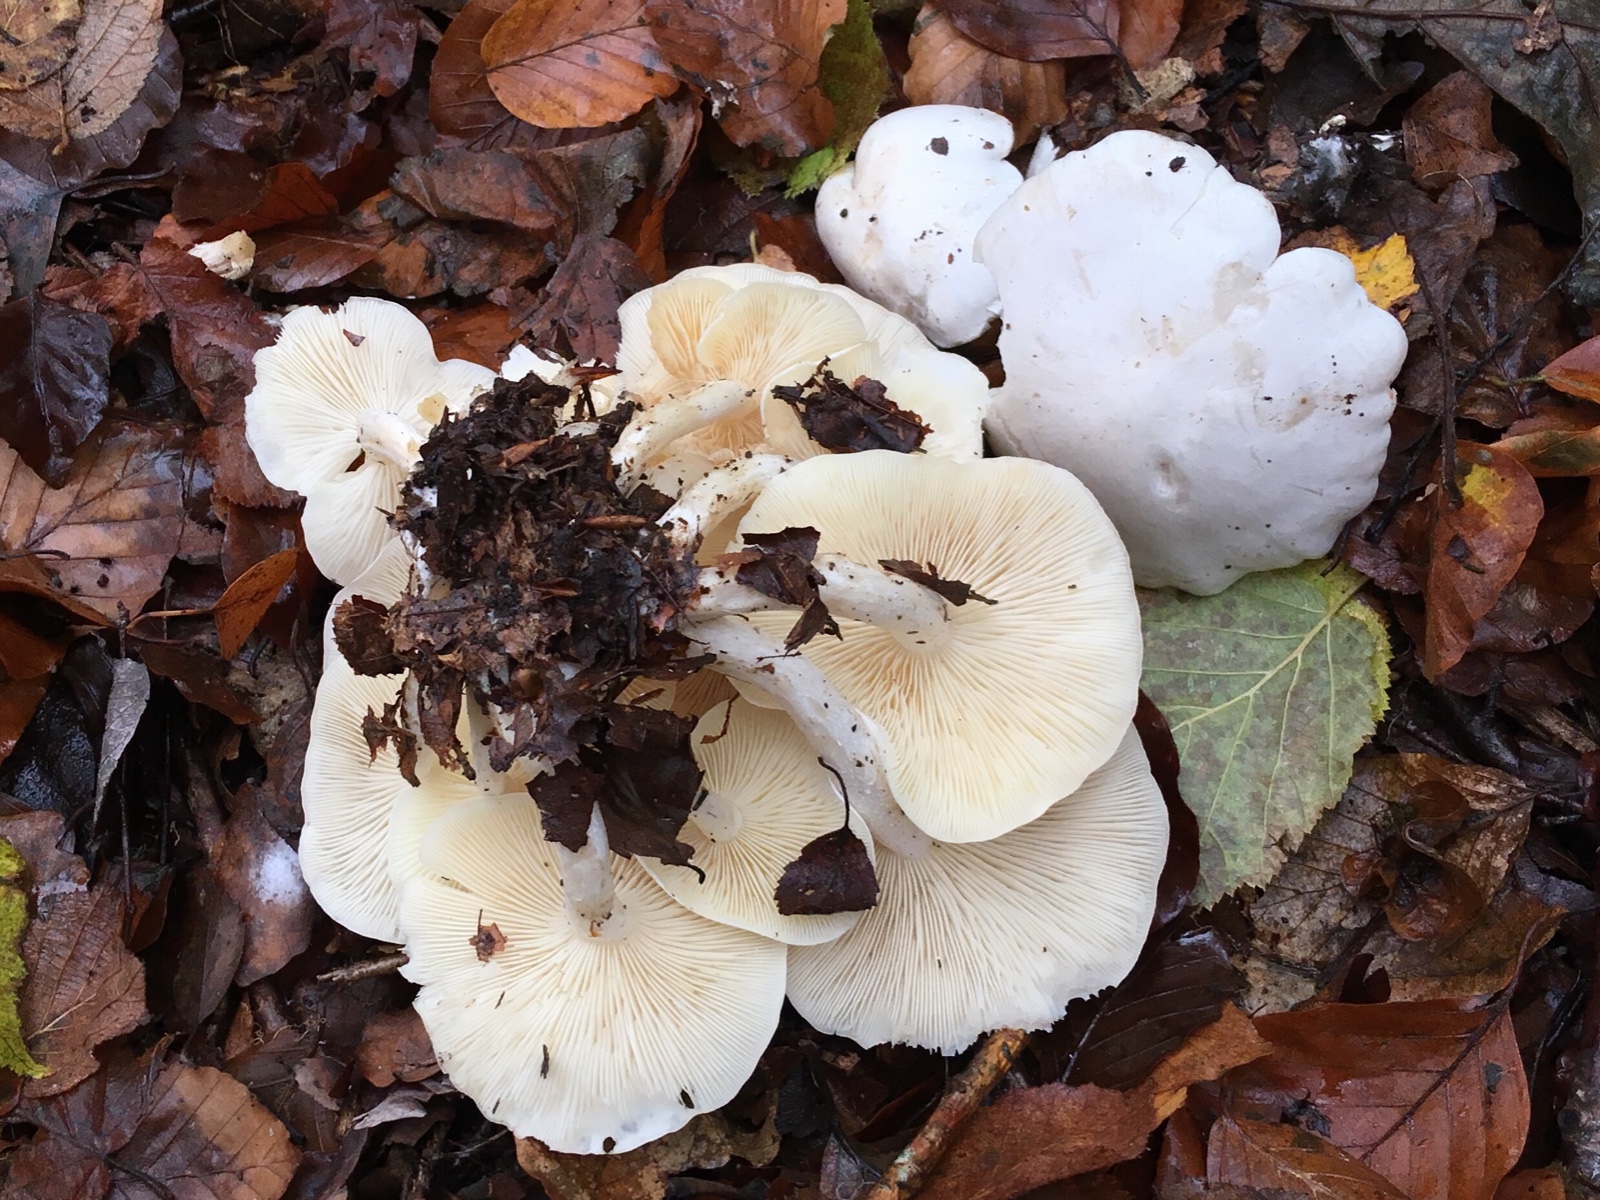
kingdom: Fungi
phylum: Basidiomycota
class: Agaricomycetes
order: Agaricales
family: Tricholomataceae
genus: Leucocybe
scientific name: Leucocybe connata
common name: knippe-tragthat
